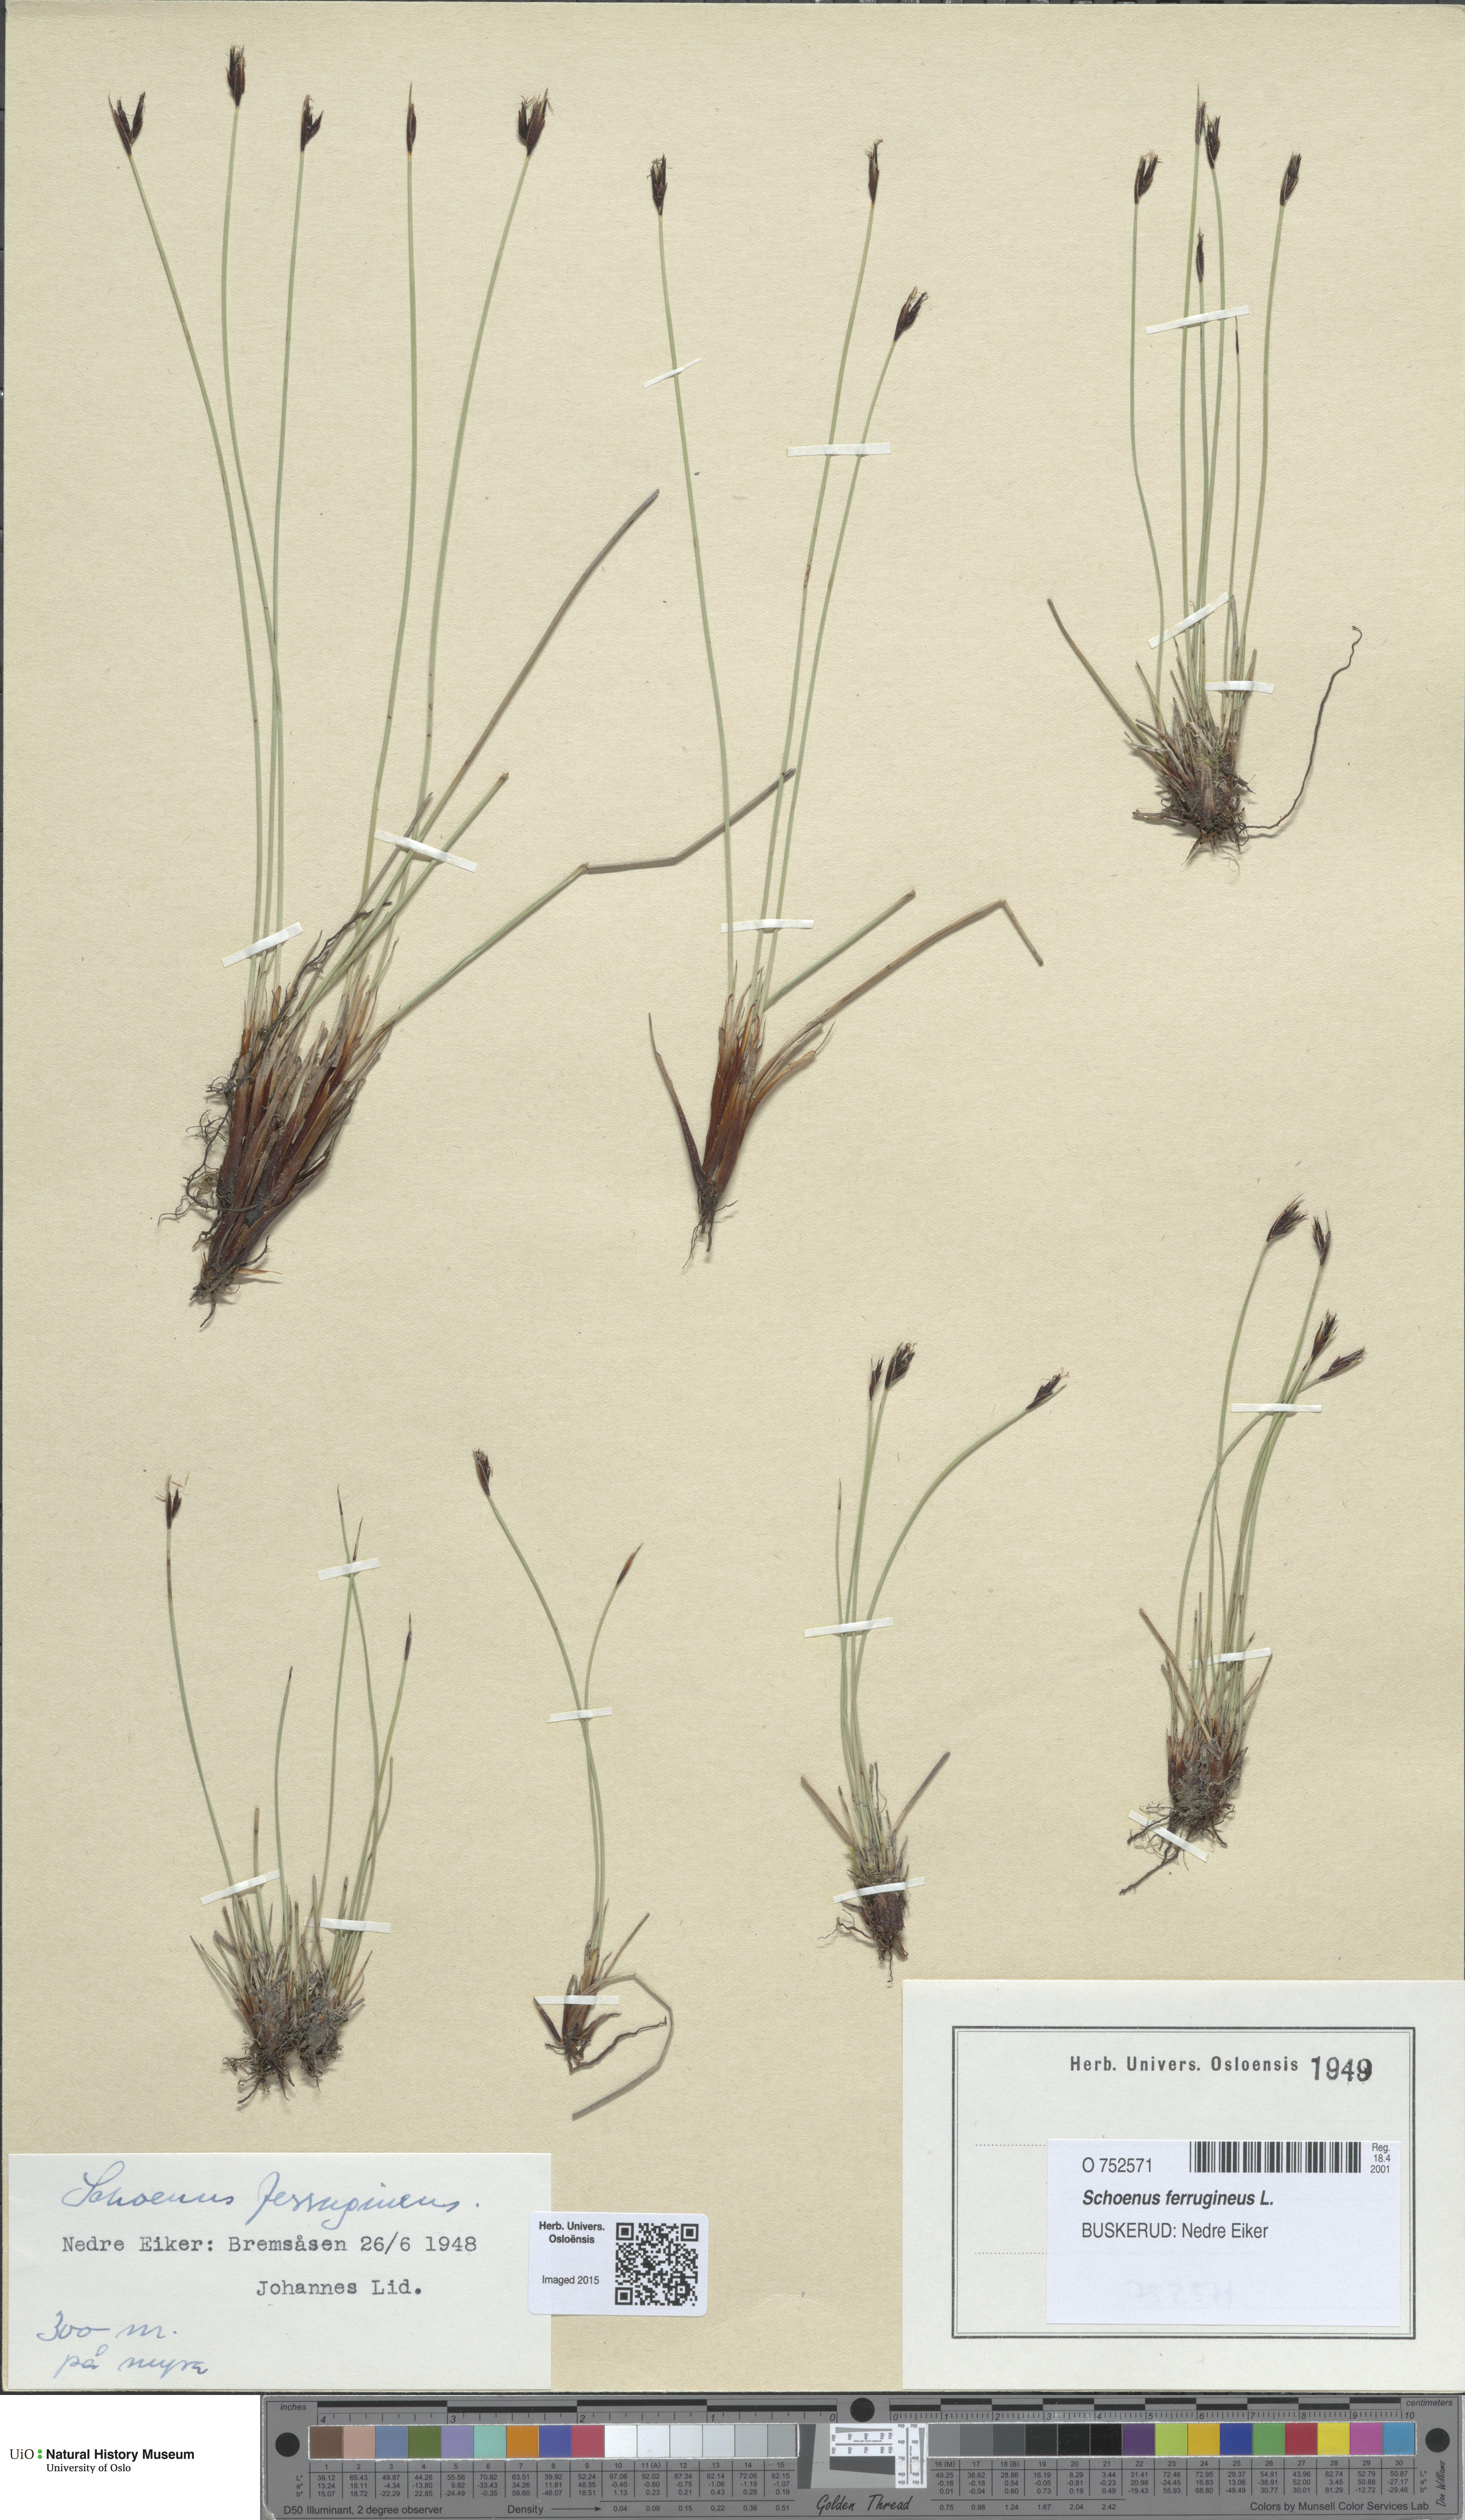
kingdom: Plantae
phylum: Tracheophyta
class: Liliopsida
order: Poales
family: Cyperaceae
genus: Schoenus
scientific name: Schoenus ferrugineus
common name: Brown bog-rush
